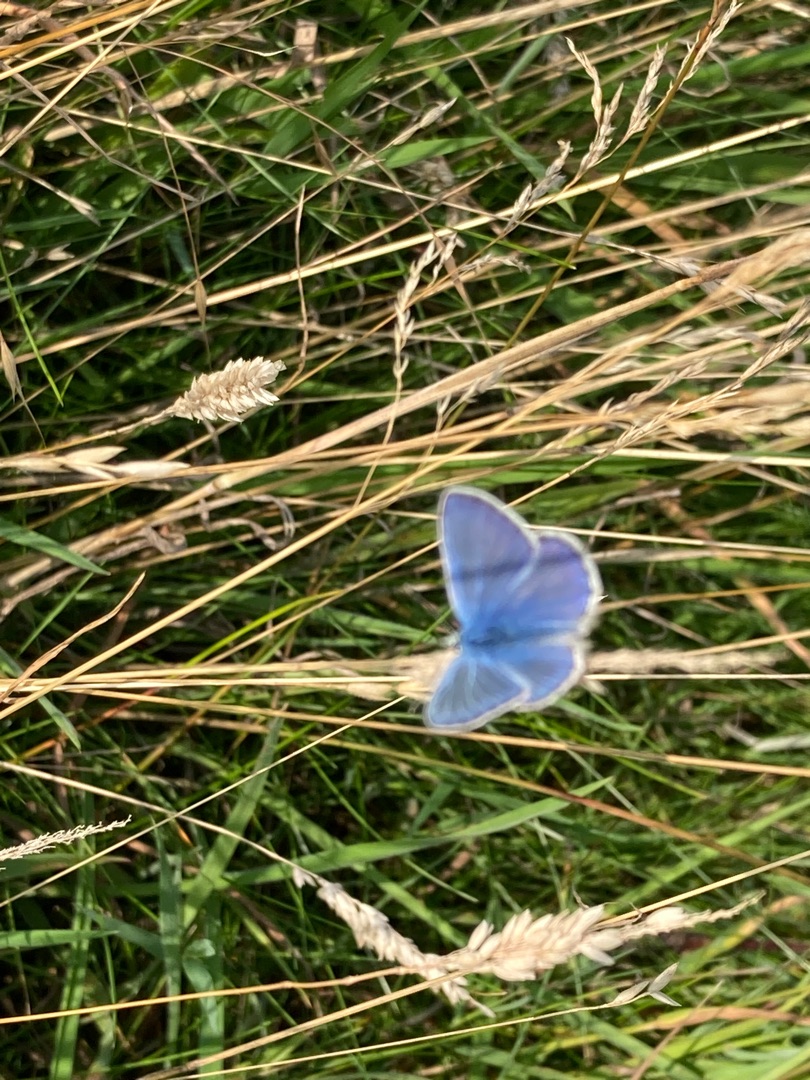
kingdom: Animalia
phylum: Arthropoda
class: Insecta
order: Lepidoptera
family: Lycaenidae
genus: Polyommatus
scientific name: Polyommatus icarus
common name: Almindelig blåfugl
